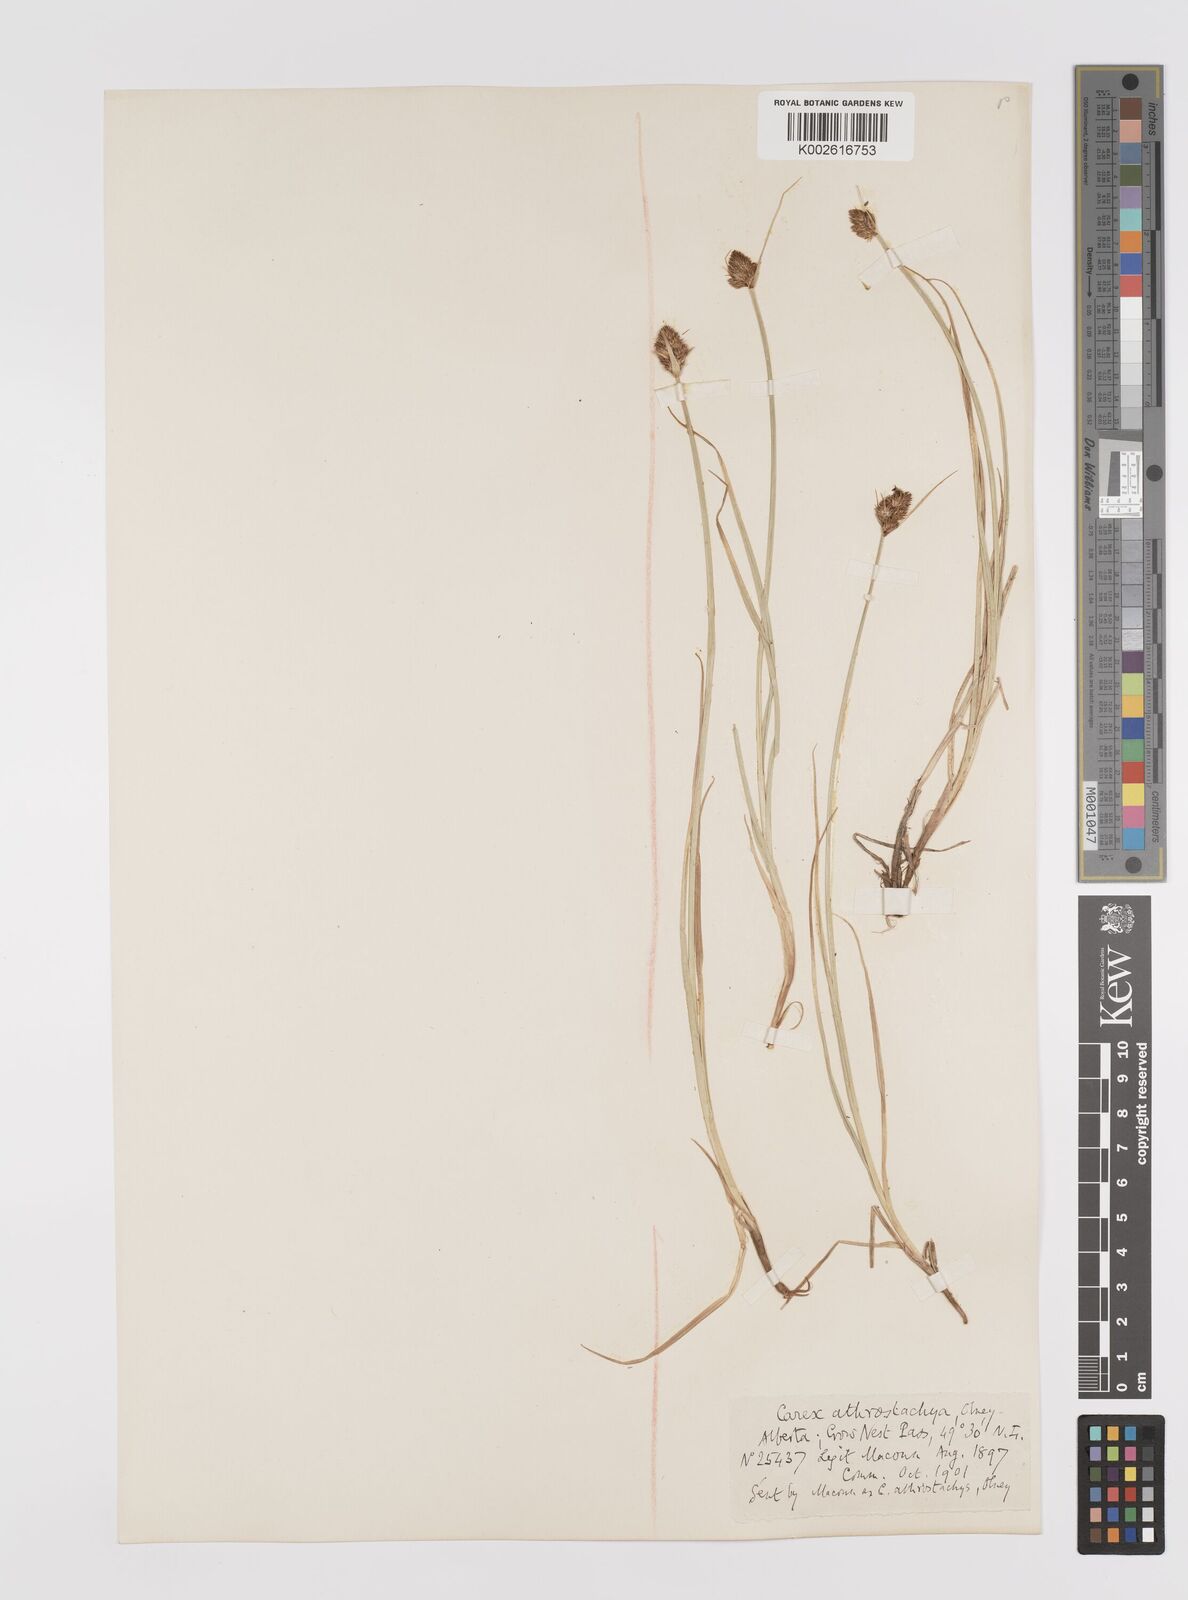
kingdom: Plantae
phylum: Tracheophyta
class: Liliopsida
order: Poales
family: Cyperaceae
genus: Carex
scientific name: Carex athrostachya
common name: Slenderbeak sedge
